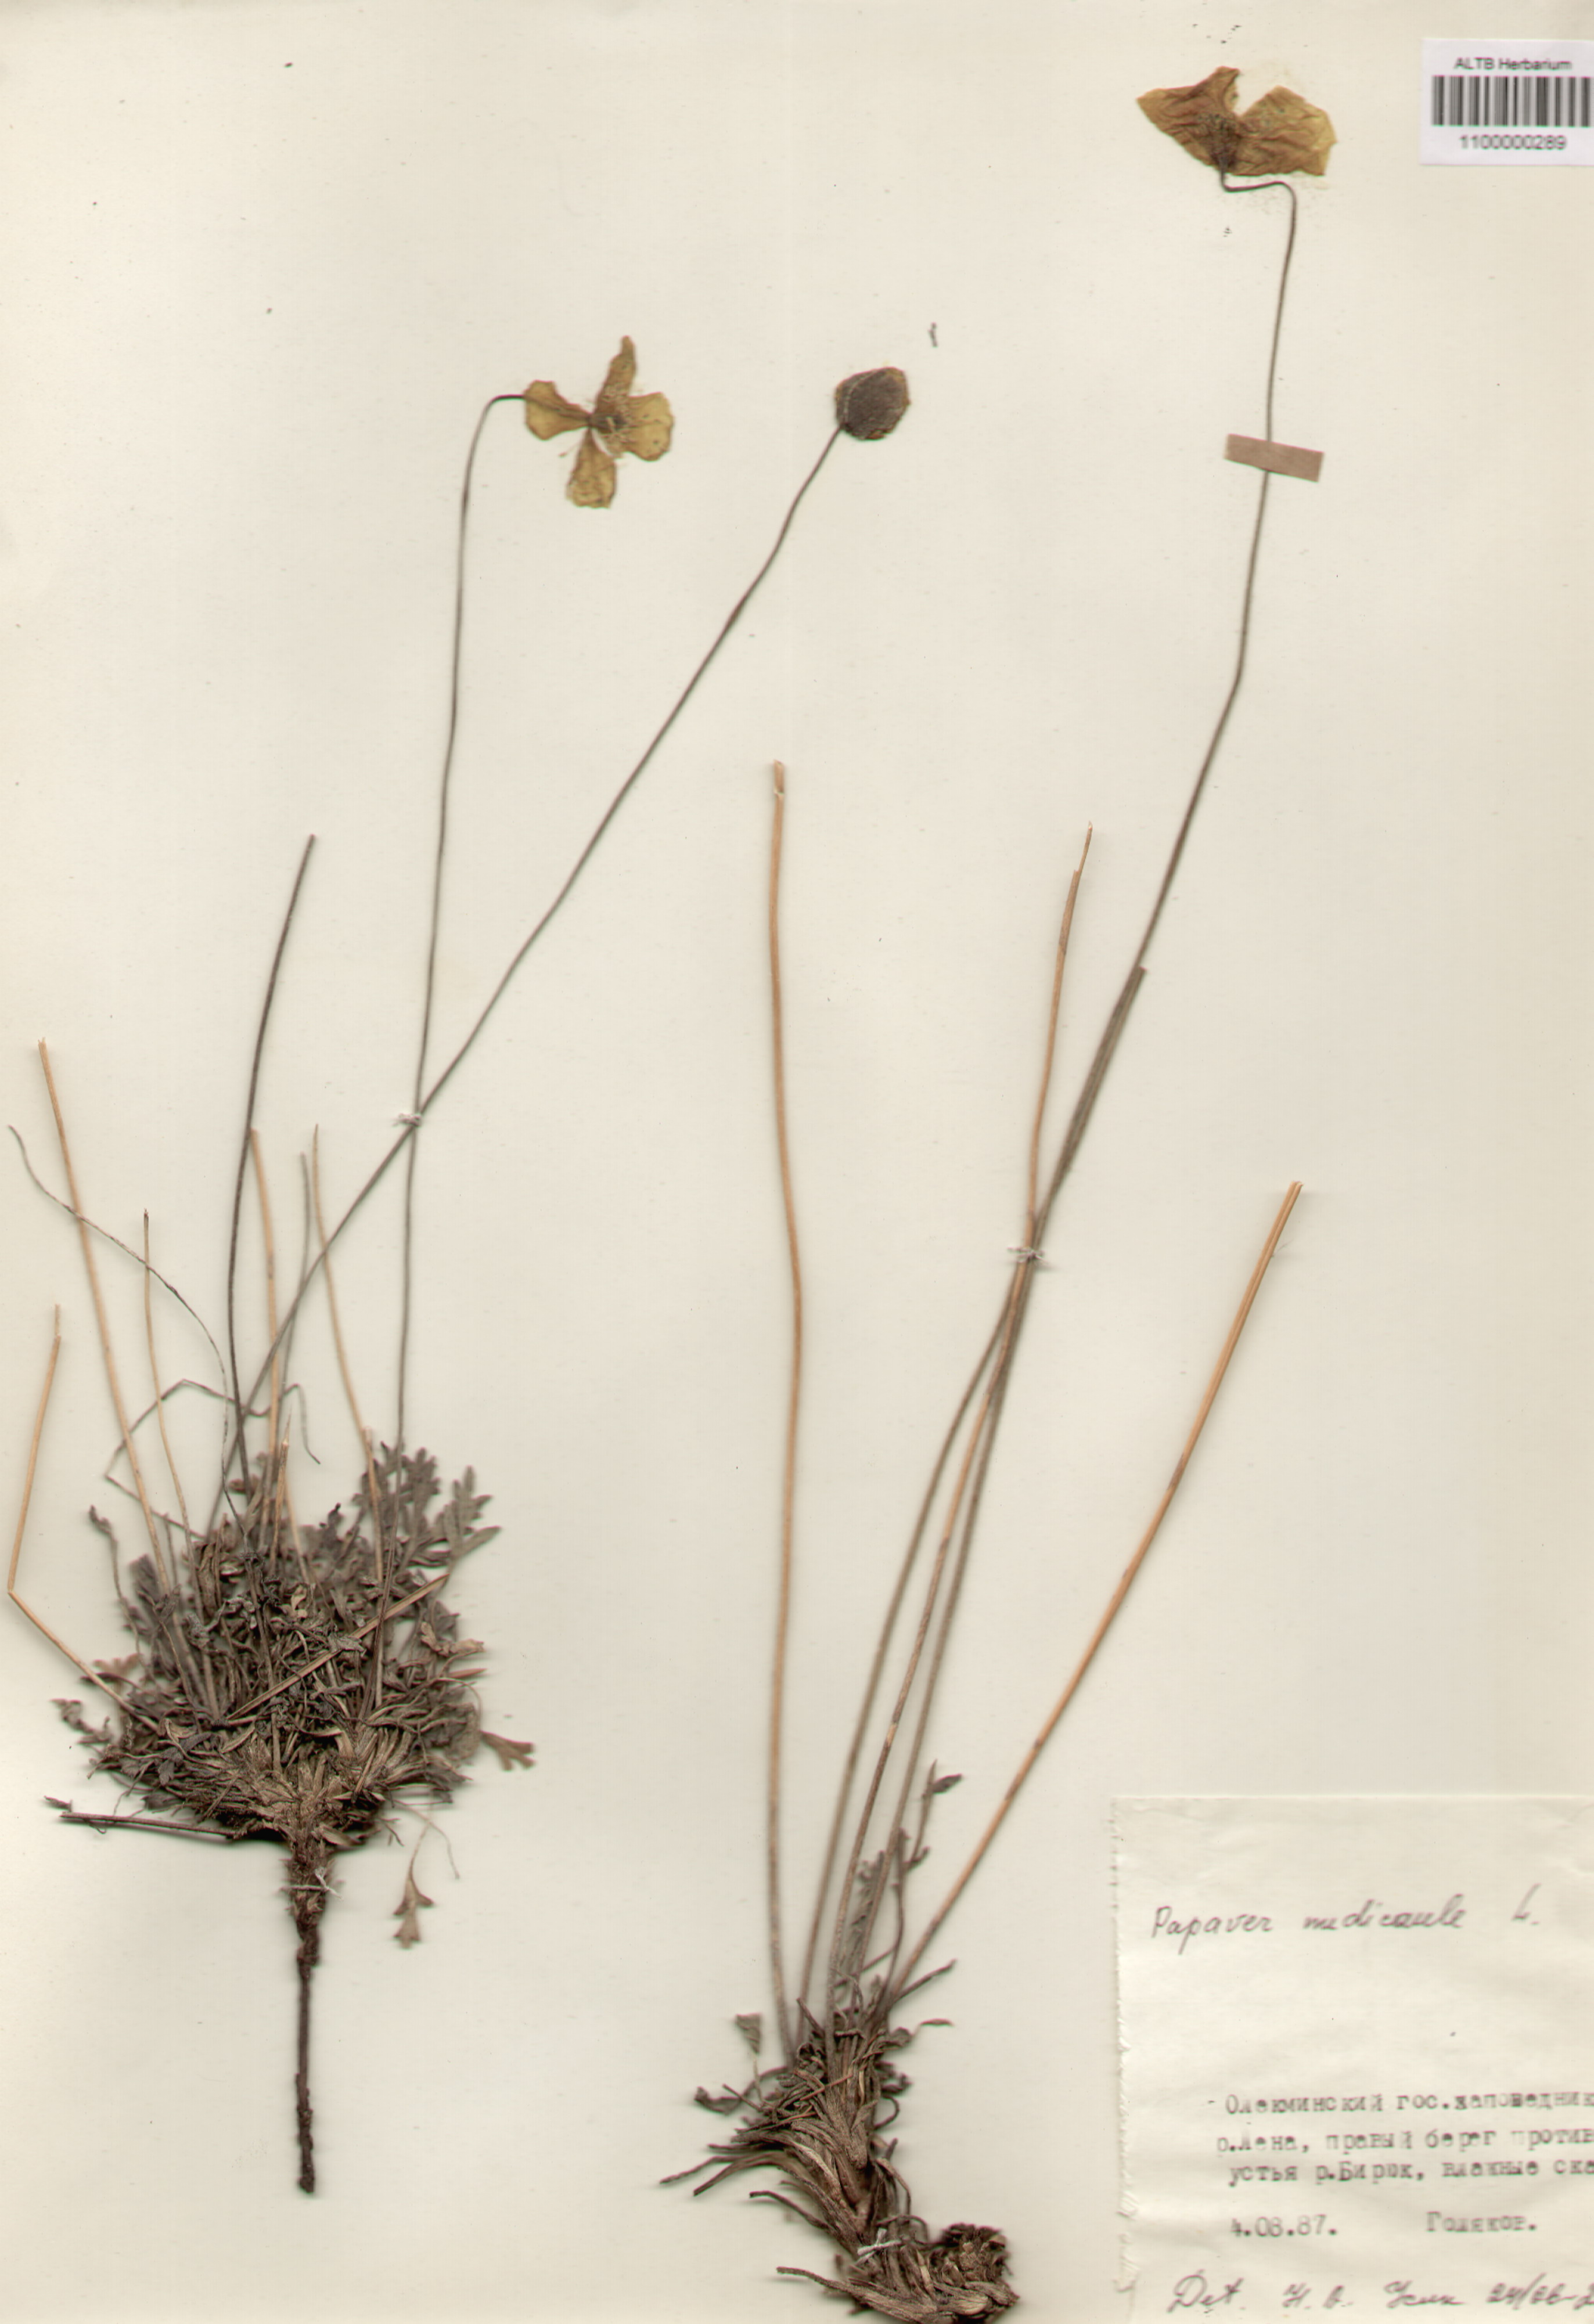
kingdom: Plantae
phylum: Tracheophyta
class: Magnoliopsida
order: Ranunculales
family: Papaveraceae
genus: Papaver
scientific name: Papaver nudicaule
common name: Arctic poppy
